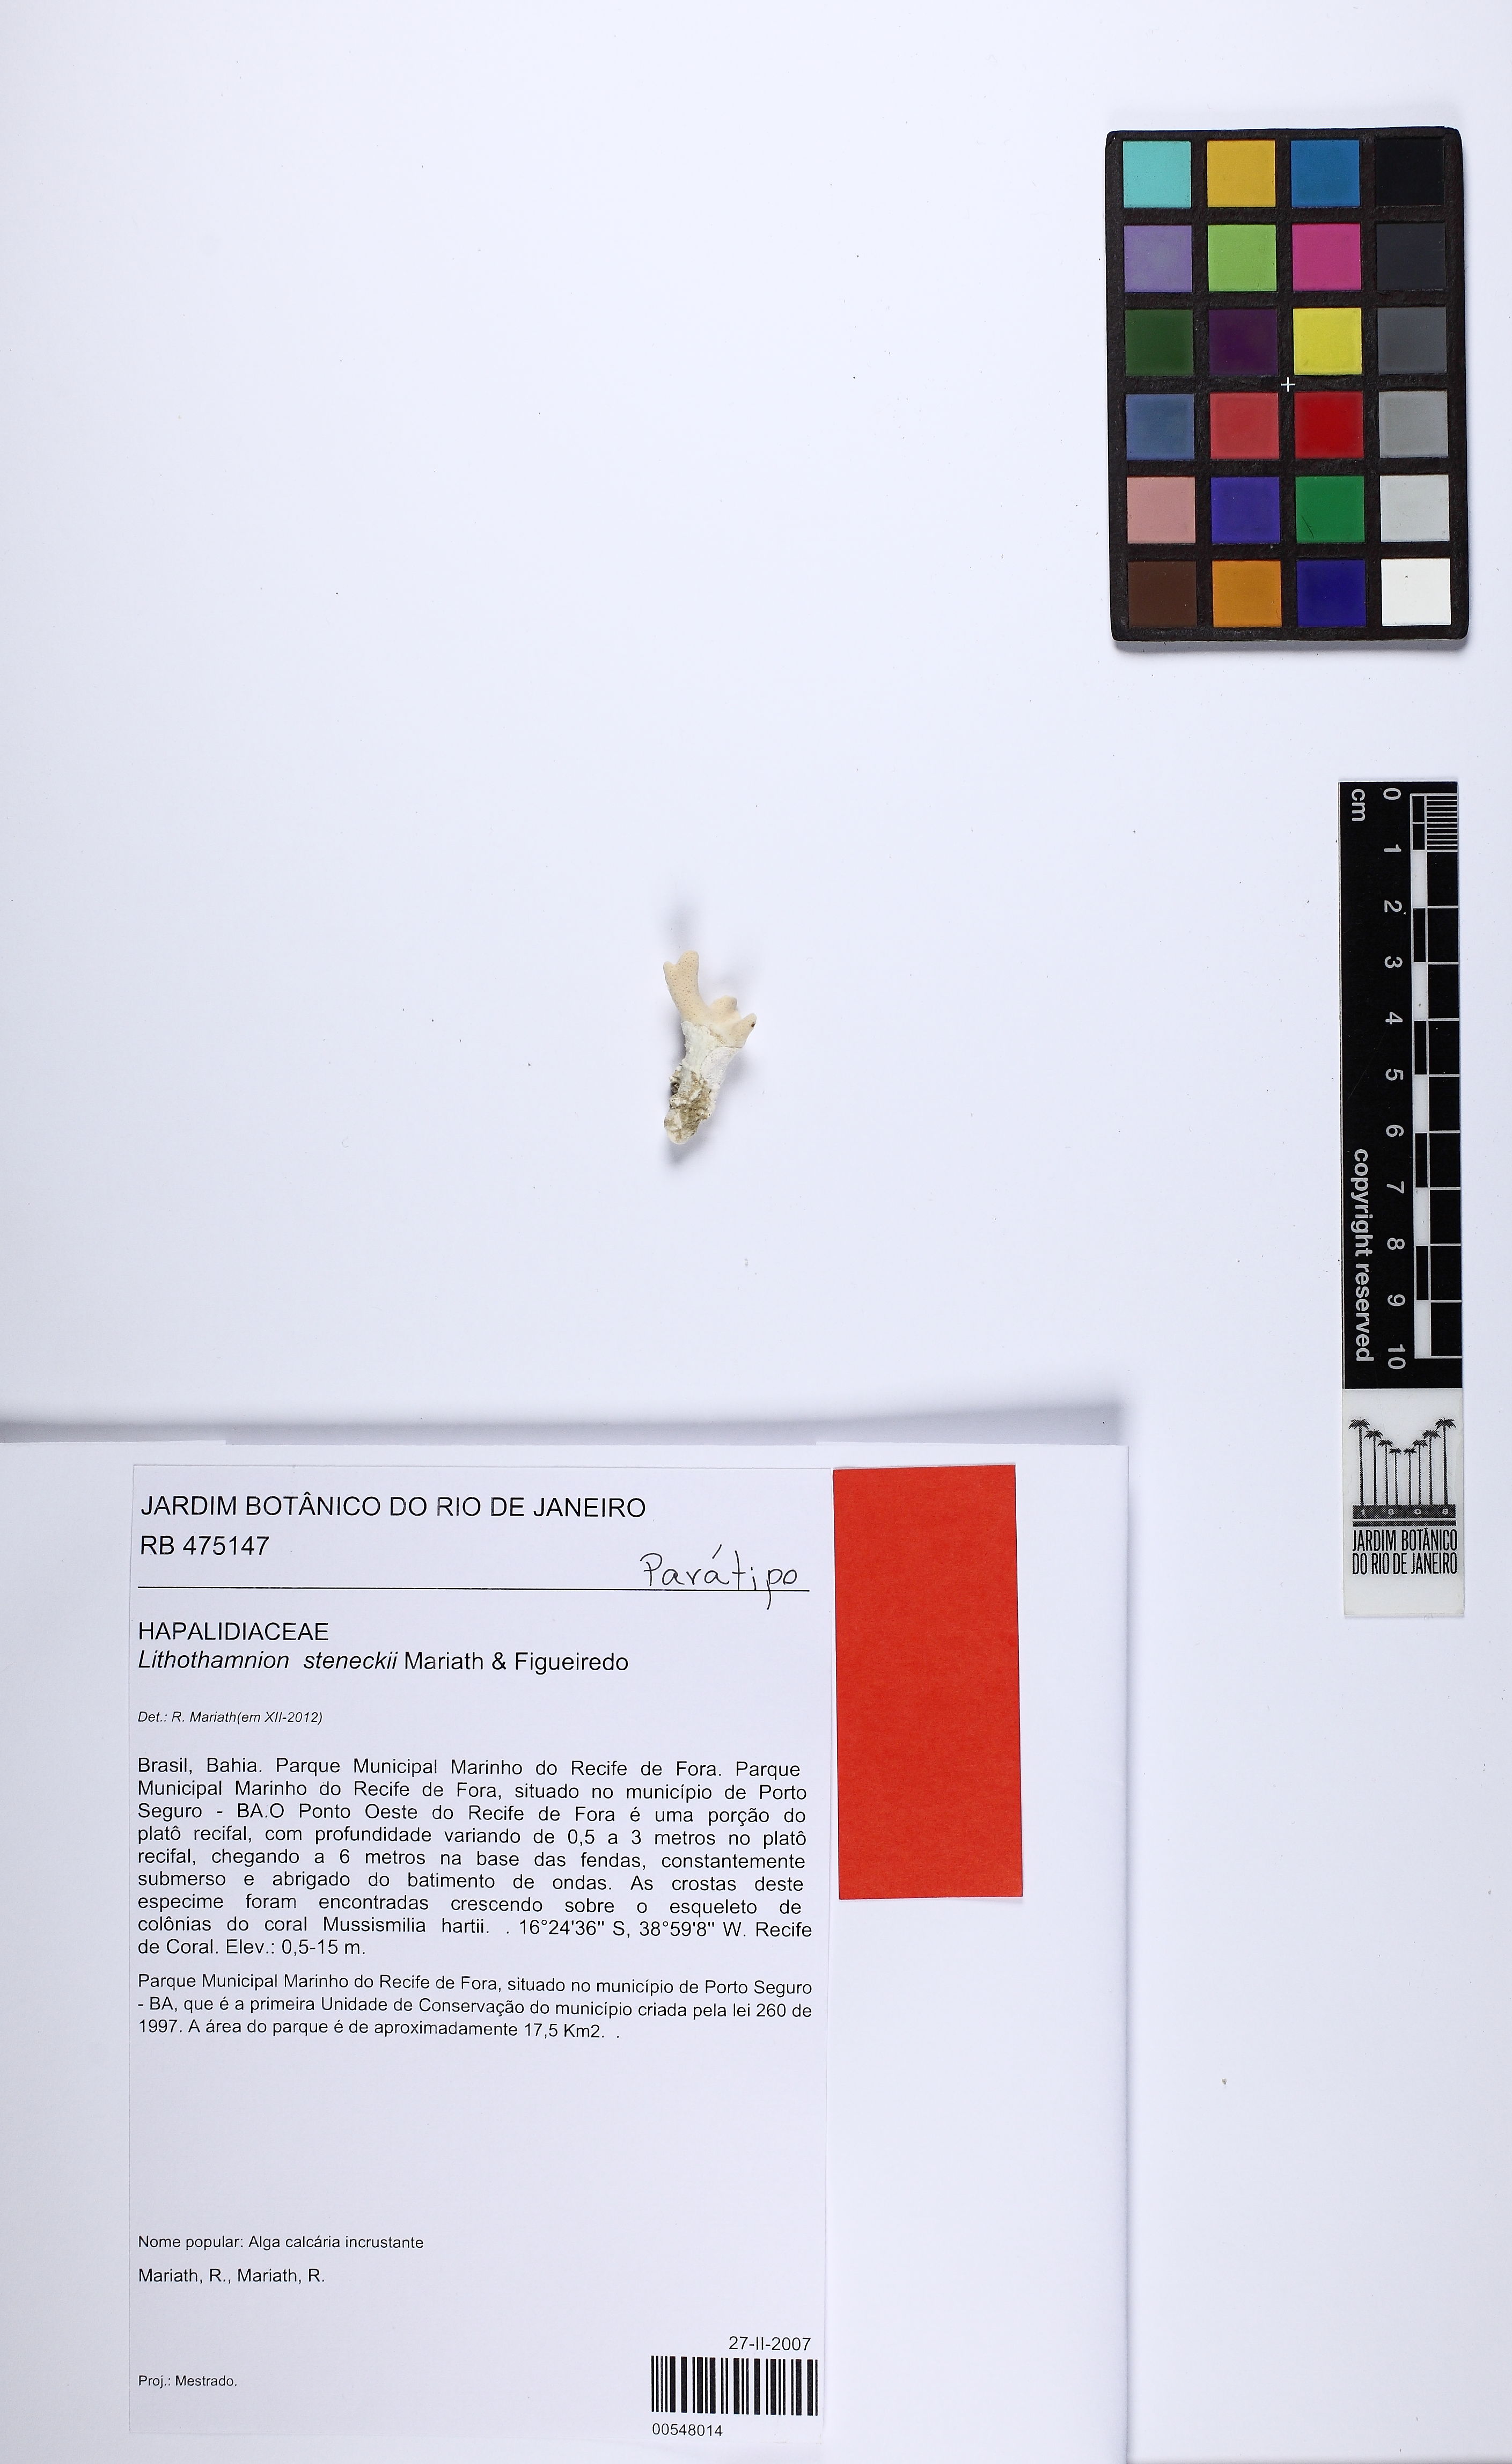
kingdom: Plantae
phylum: Rhodophyta
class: Florideophyceae
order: Corallinales
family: Hapalidiaceae
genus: Lithothamnion
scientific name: Lithothamnion steneckii
